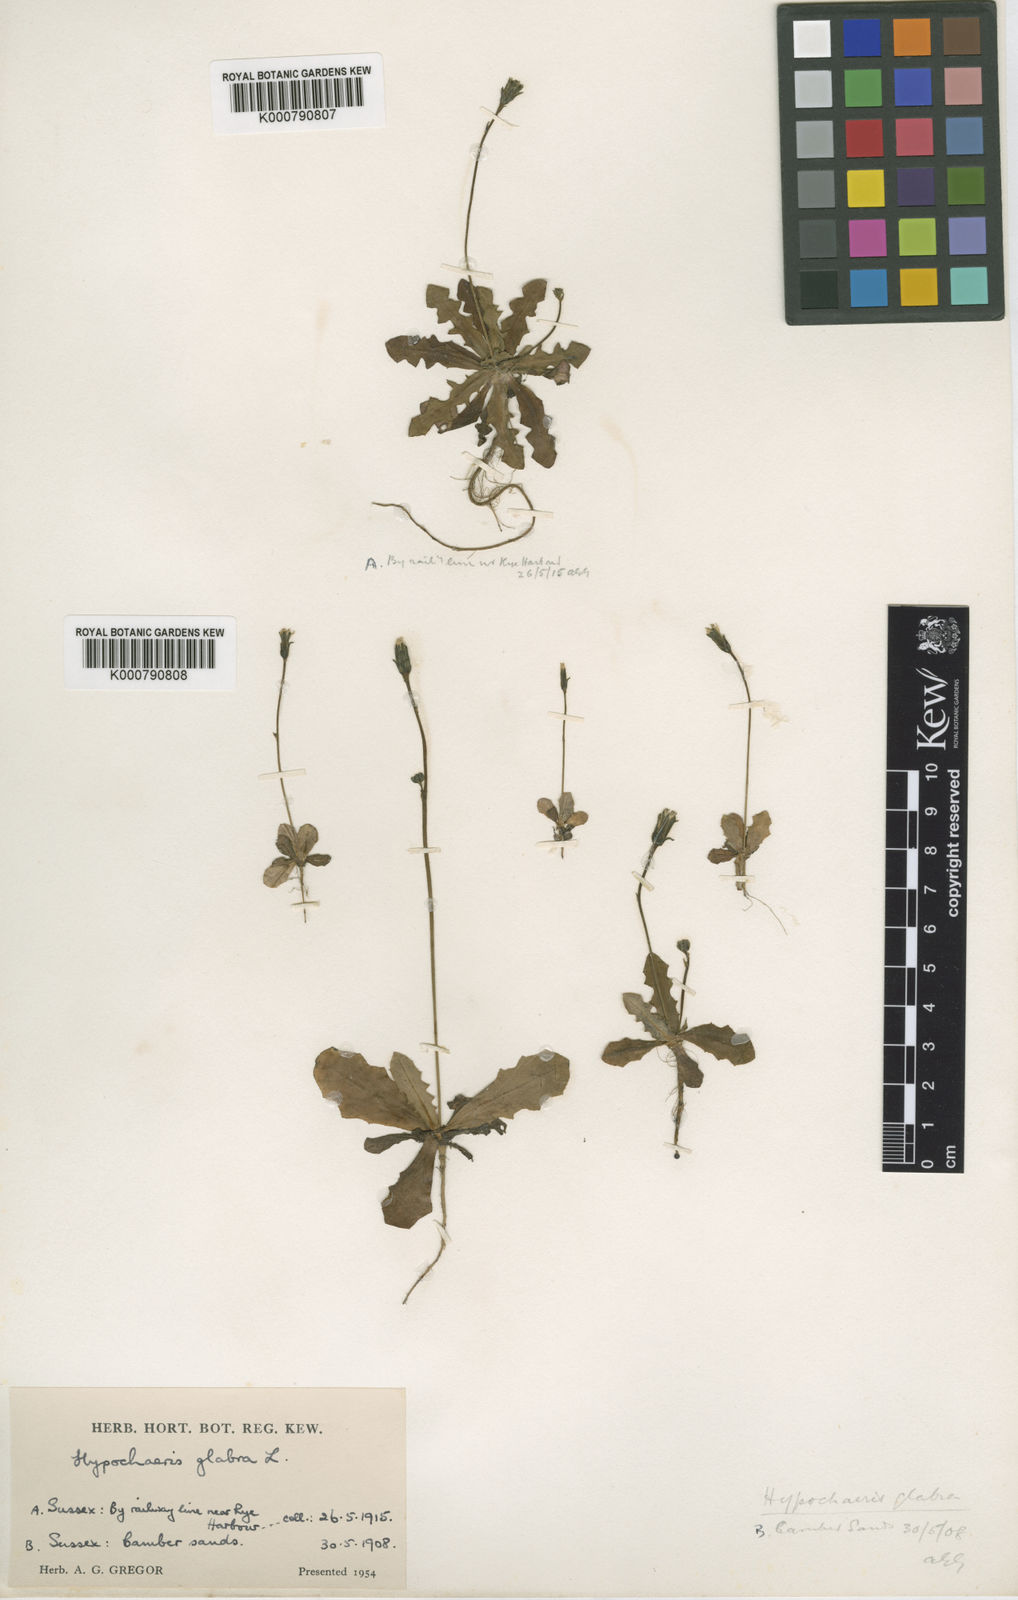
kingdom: Plantae
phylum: Tracheophyta
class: Magnoliopsida
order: Asterales
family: Asteraceae
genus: Hypochaeris
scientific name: Hypochaeris glabra
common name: Smooth catsear
